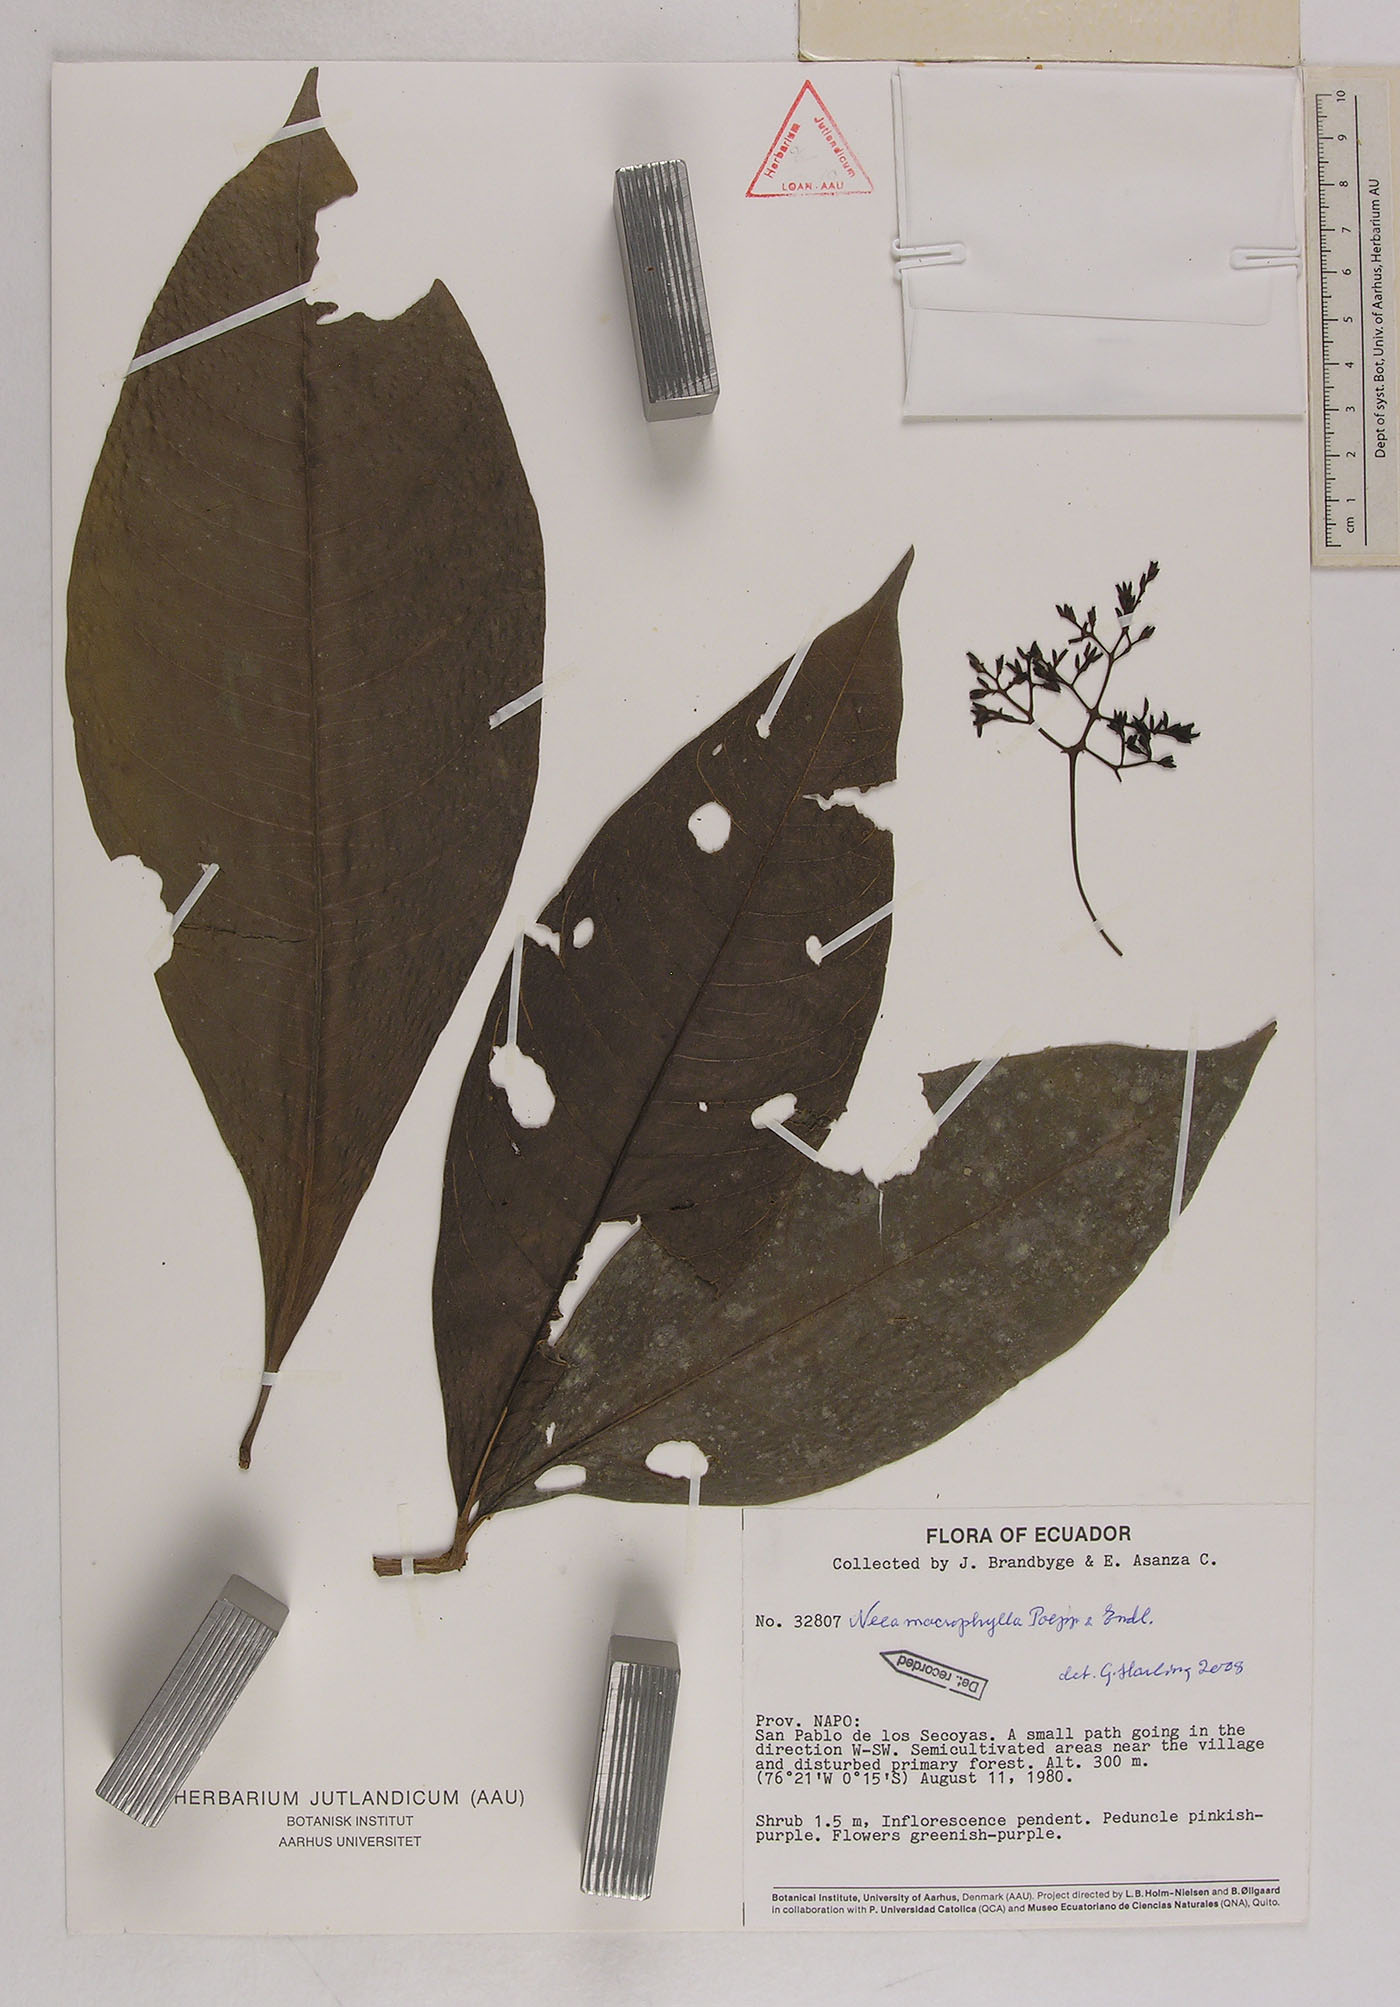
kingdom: Plantae
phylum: Tracheophyta
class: Magnoliopsida
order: Caryophyllales
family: Nyctaginaceae
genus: Neea
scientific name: Neea macrophylla
